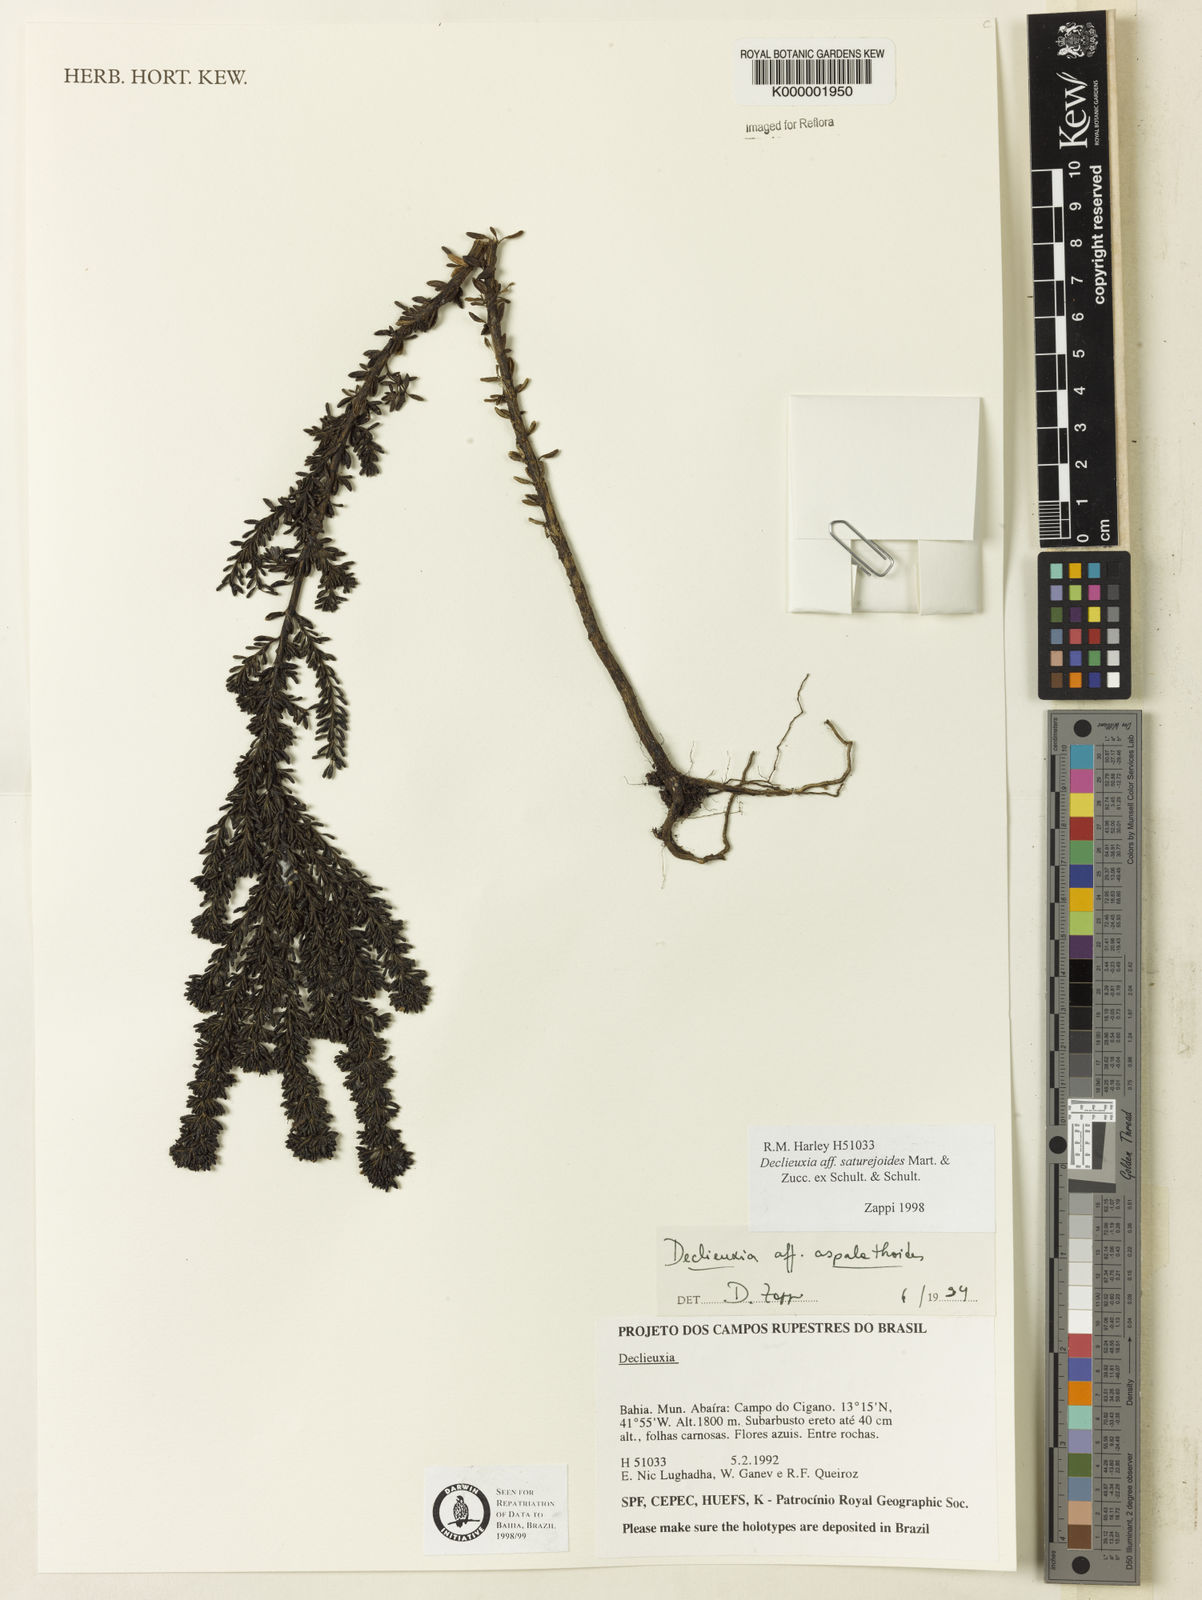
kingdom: Plantae
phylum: Tracheophyta
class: Magnoliopsida
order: Gentianales
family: Rubiaceae
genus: Declieuxia
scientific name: Declieuxia
